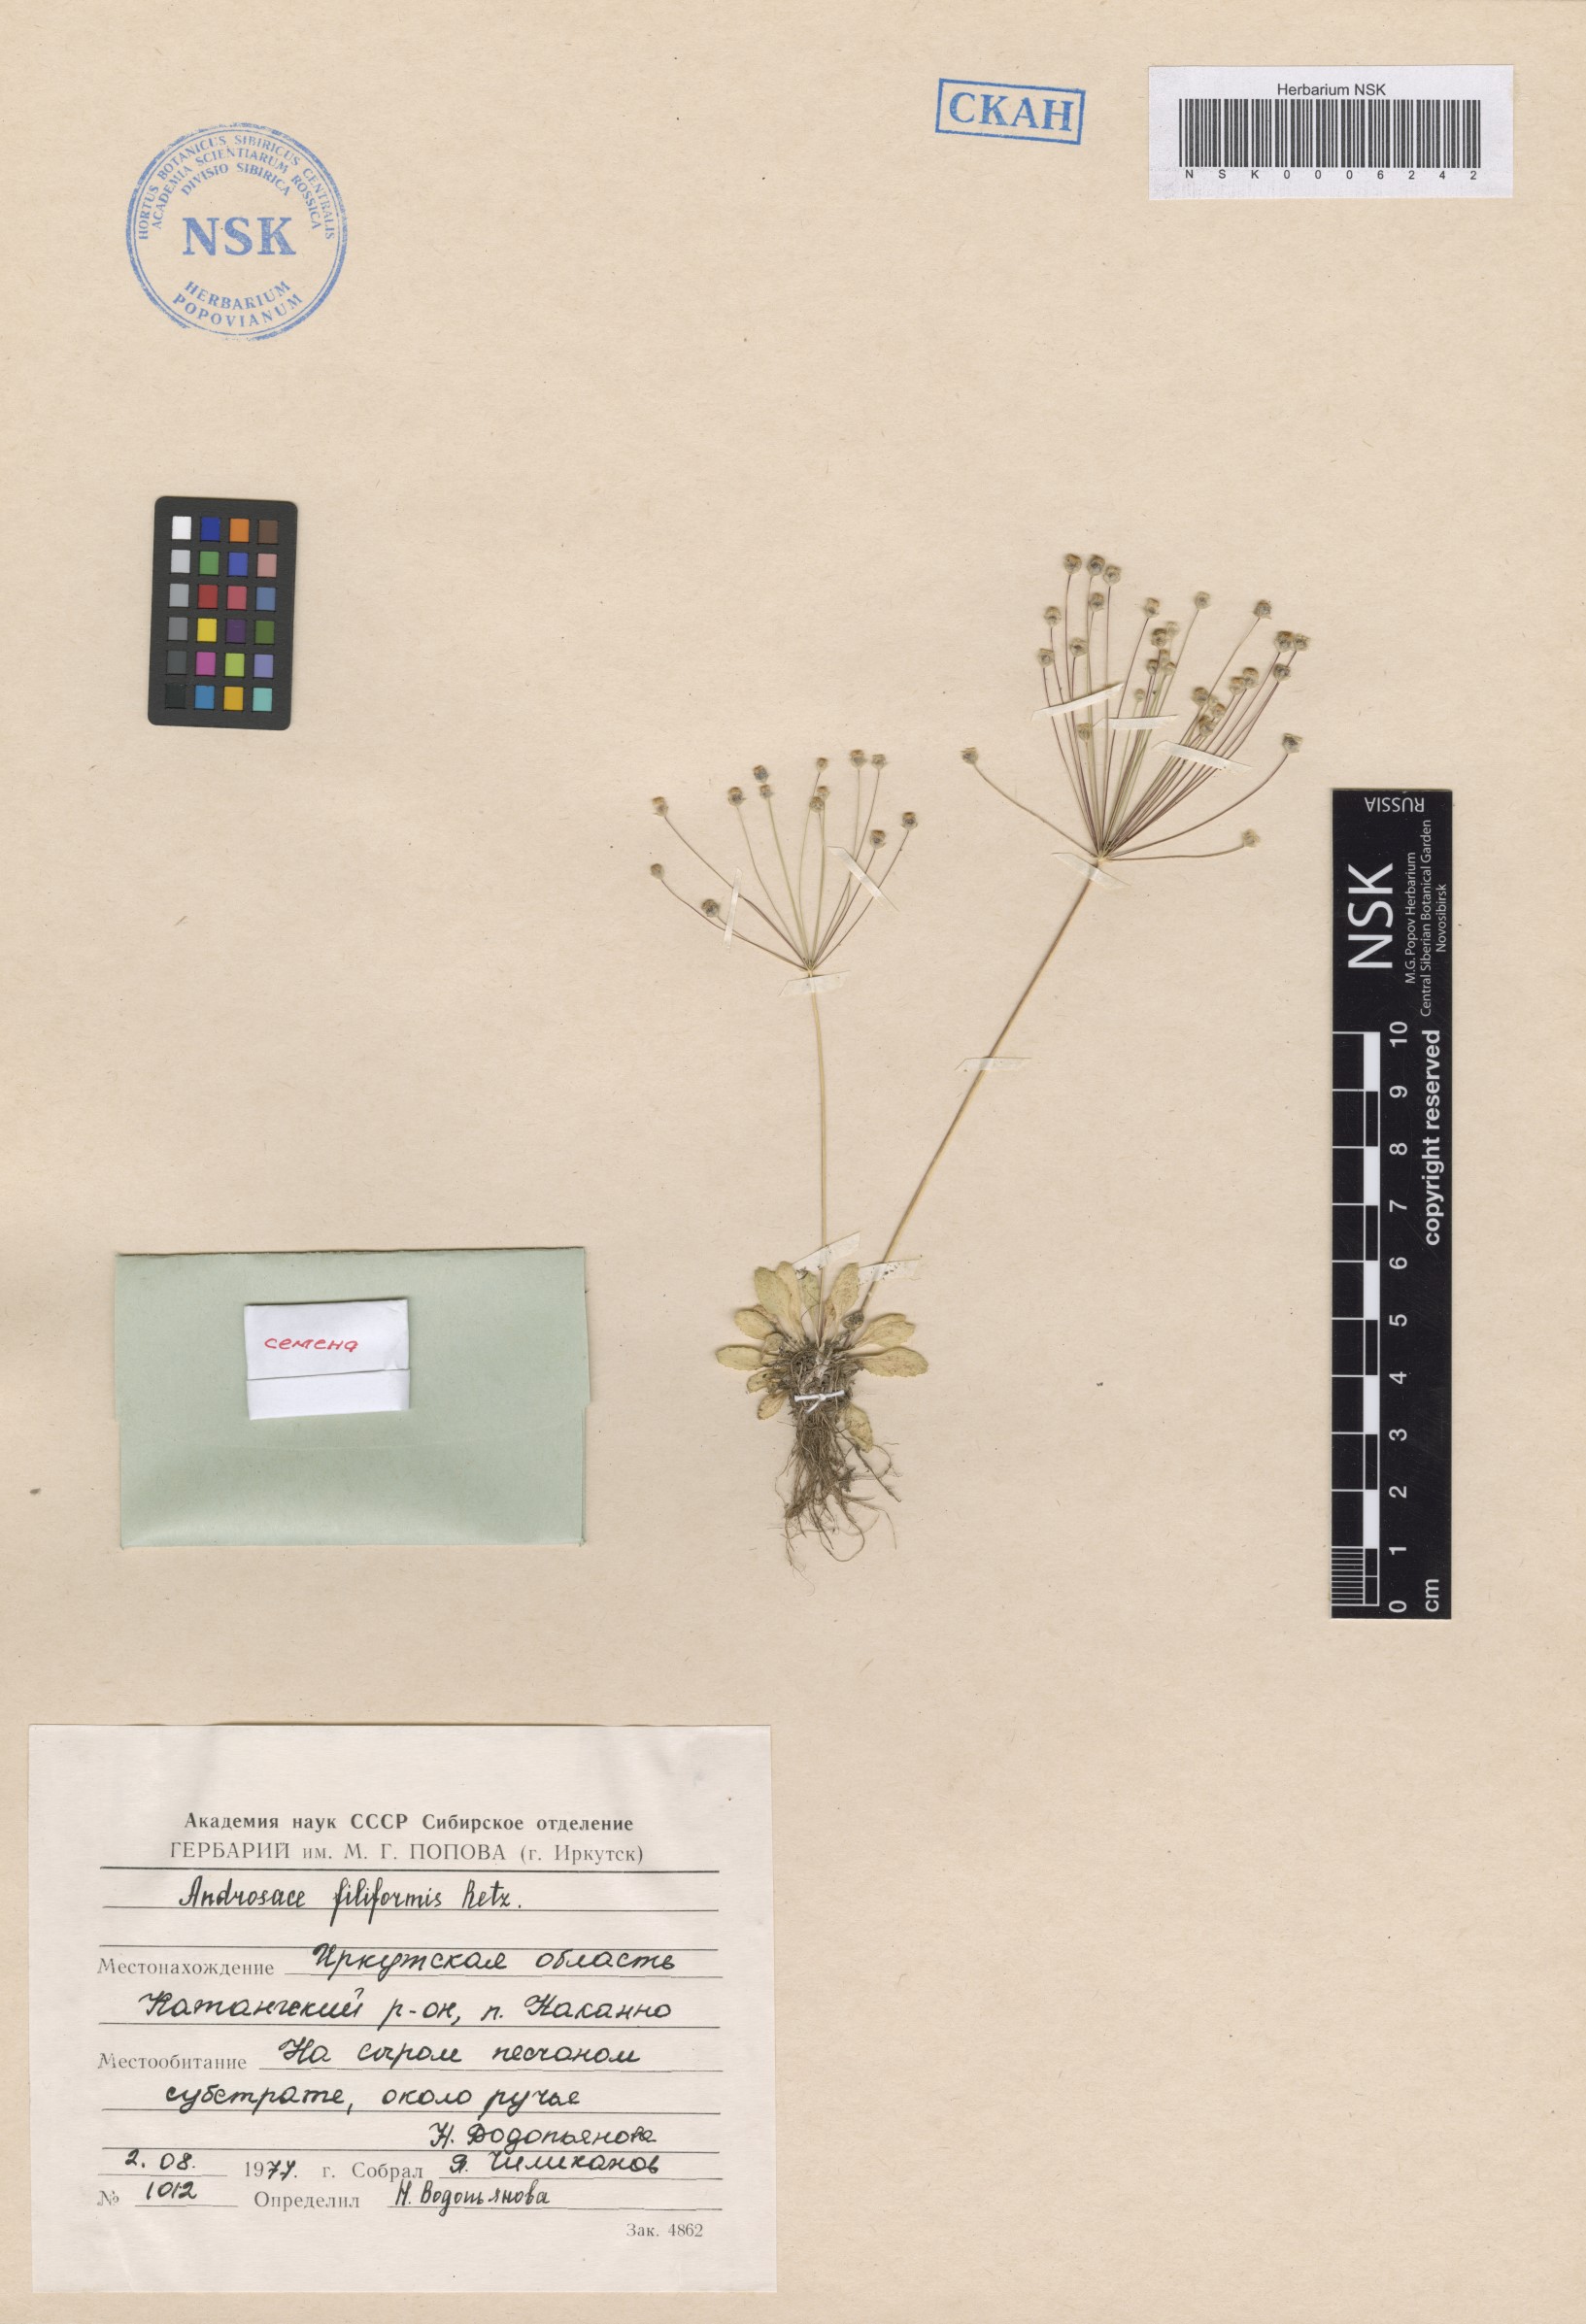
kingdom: Plantae
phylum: Tracheophyta
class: Magnoliopsida
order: Ericales
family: Primulaceae
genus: Androsace
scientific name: Androsace filiformis
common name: Filiform rock jasmine
